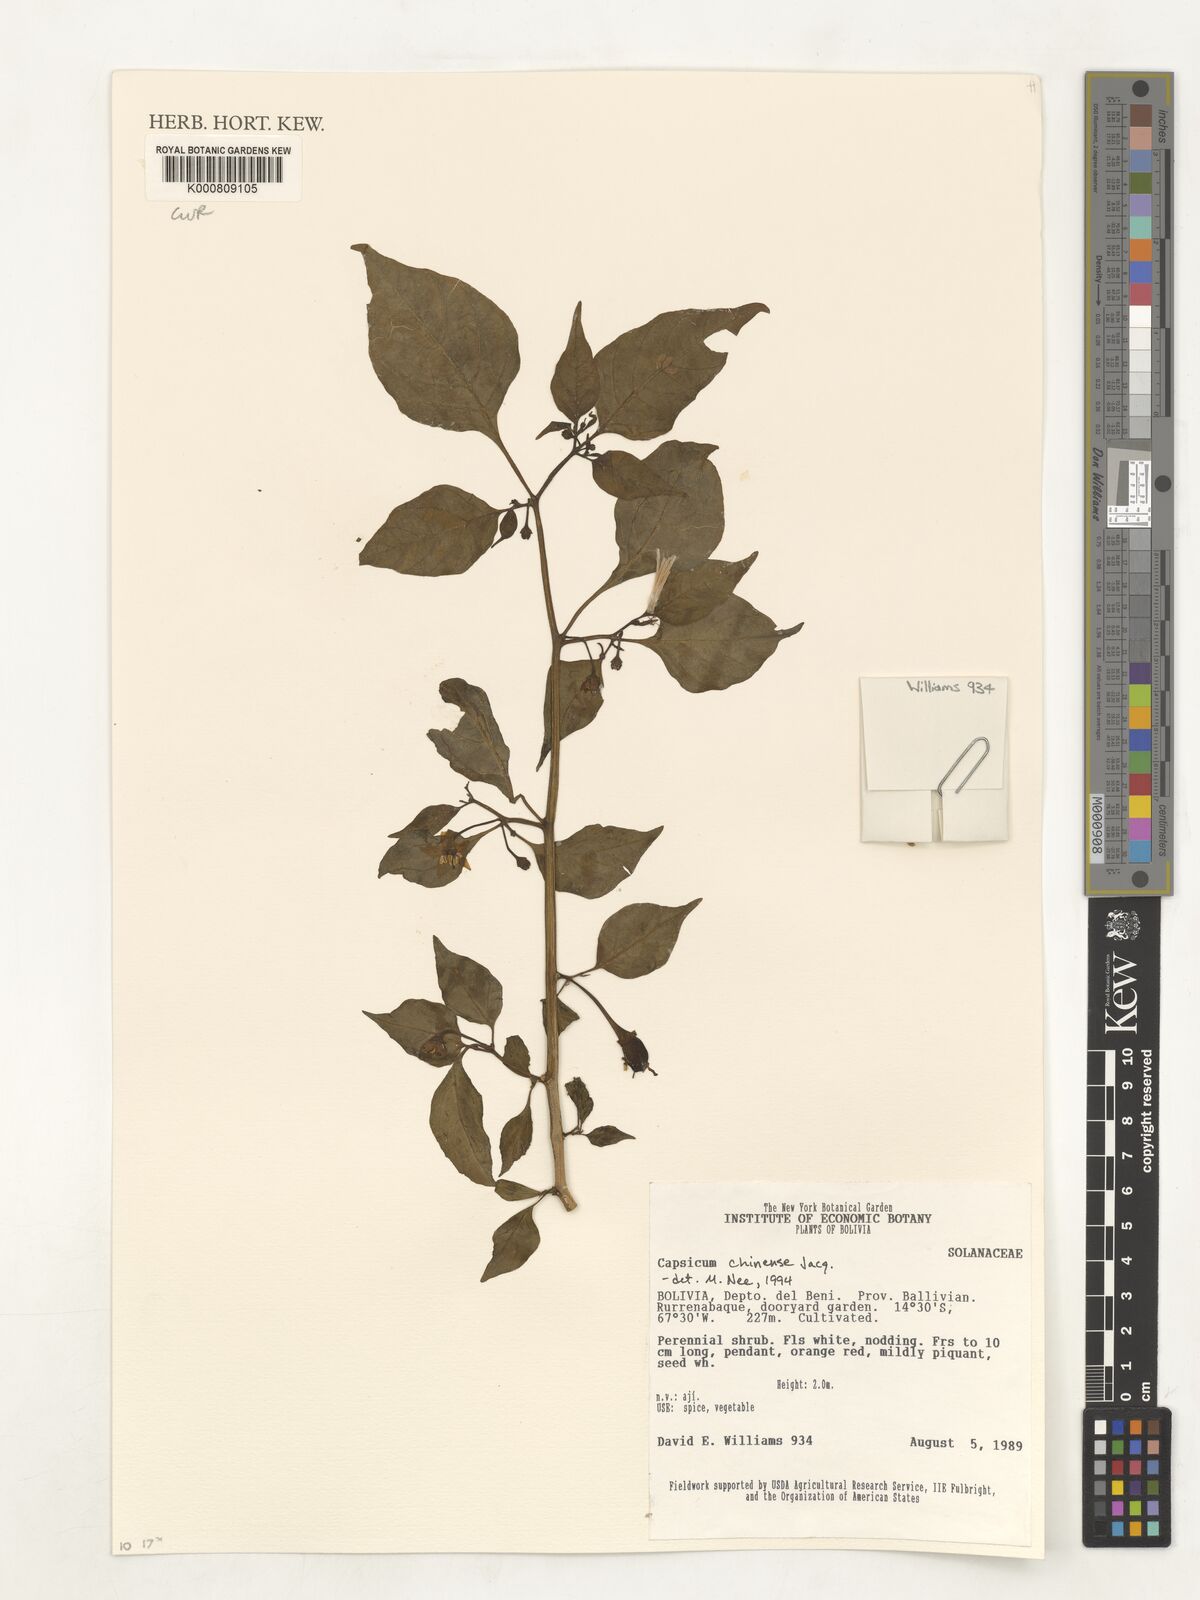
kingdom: Plantae
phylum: Tracheophyta
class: Magnoliopsida
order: Solanales
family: Solanaceae
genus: Capsicum
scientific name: Capsicum chinense
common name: Yellow squash pepper
